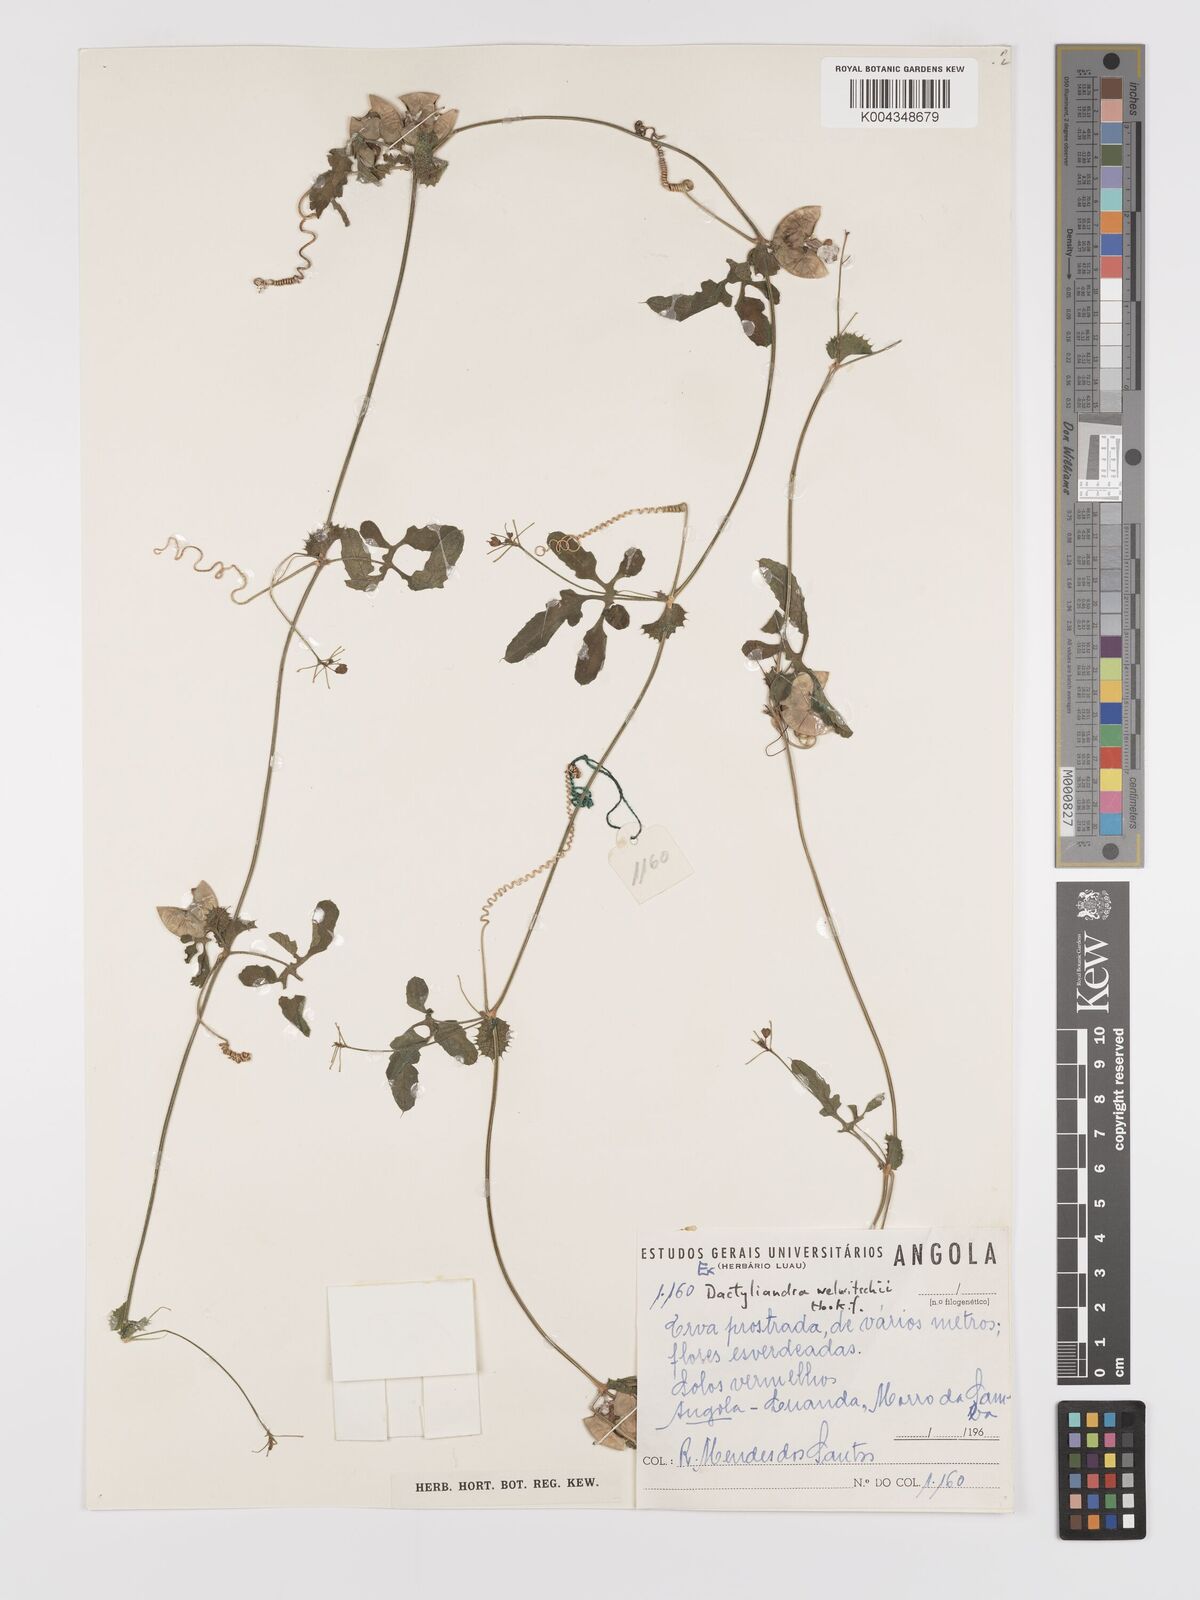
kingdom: Plantae
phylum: Tracheophyta
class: Magnoliopsida
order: Cucurbitales
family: Cucurbitaceae
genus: Dactyliandra
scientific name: Dactyliandra welwitschii
